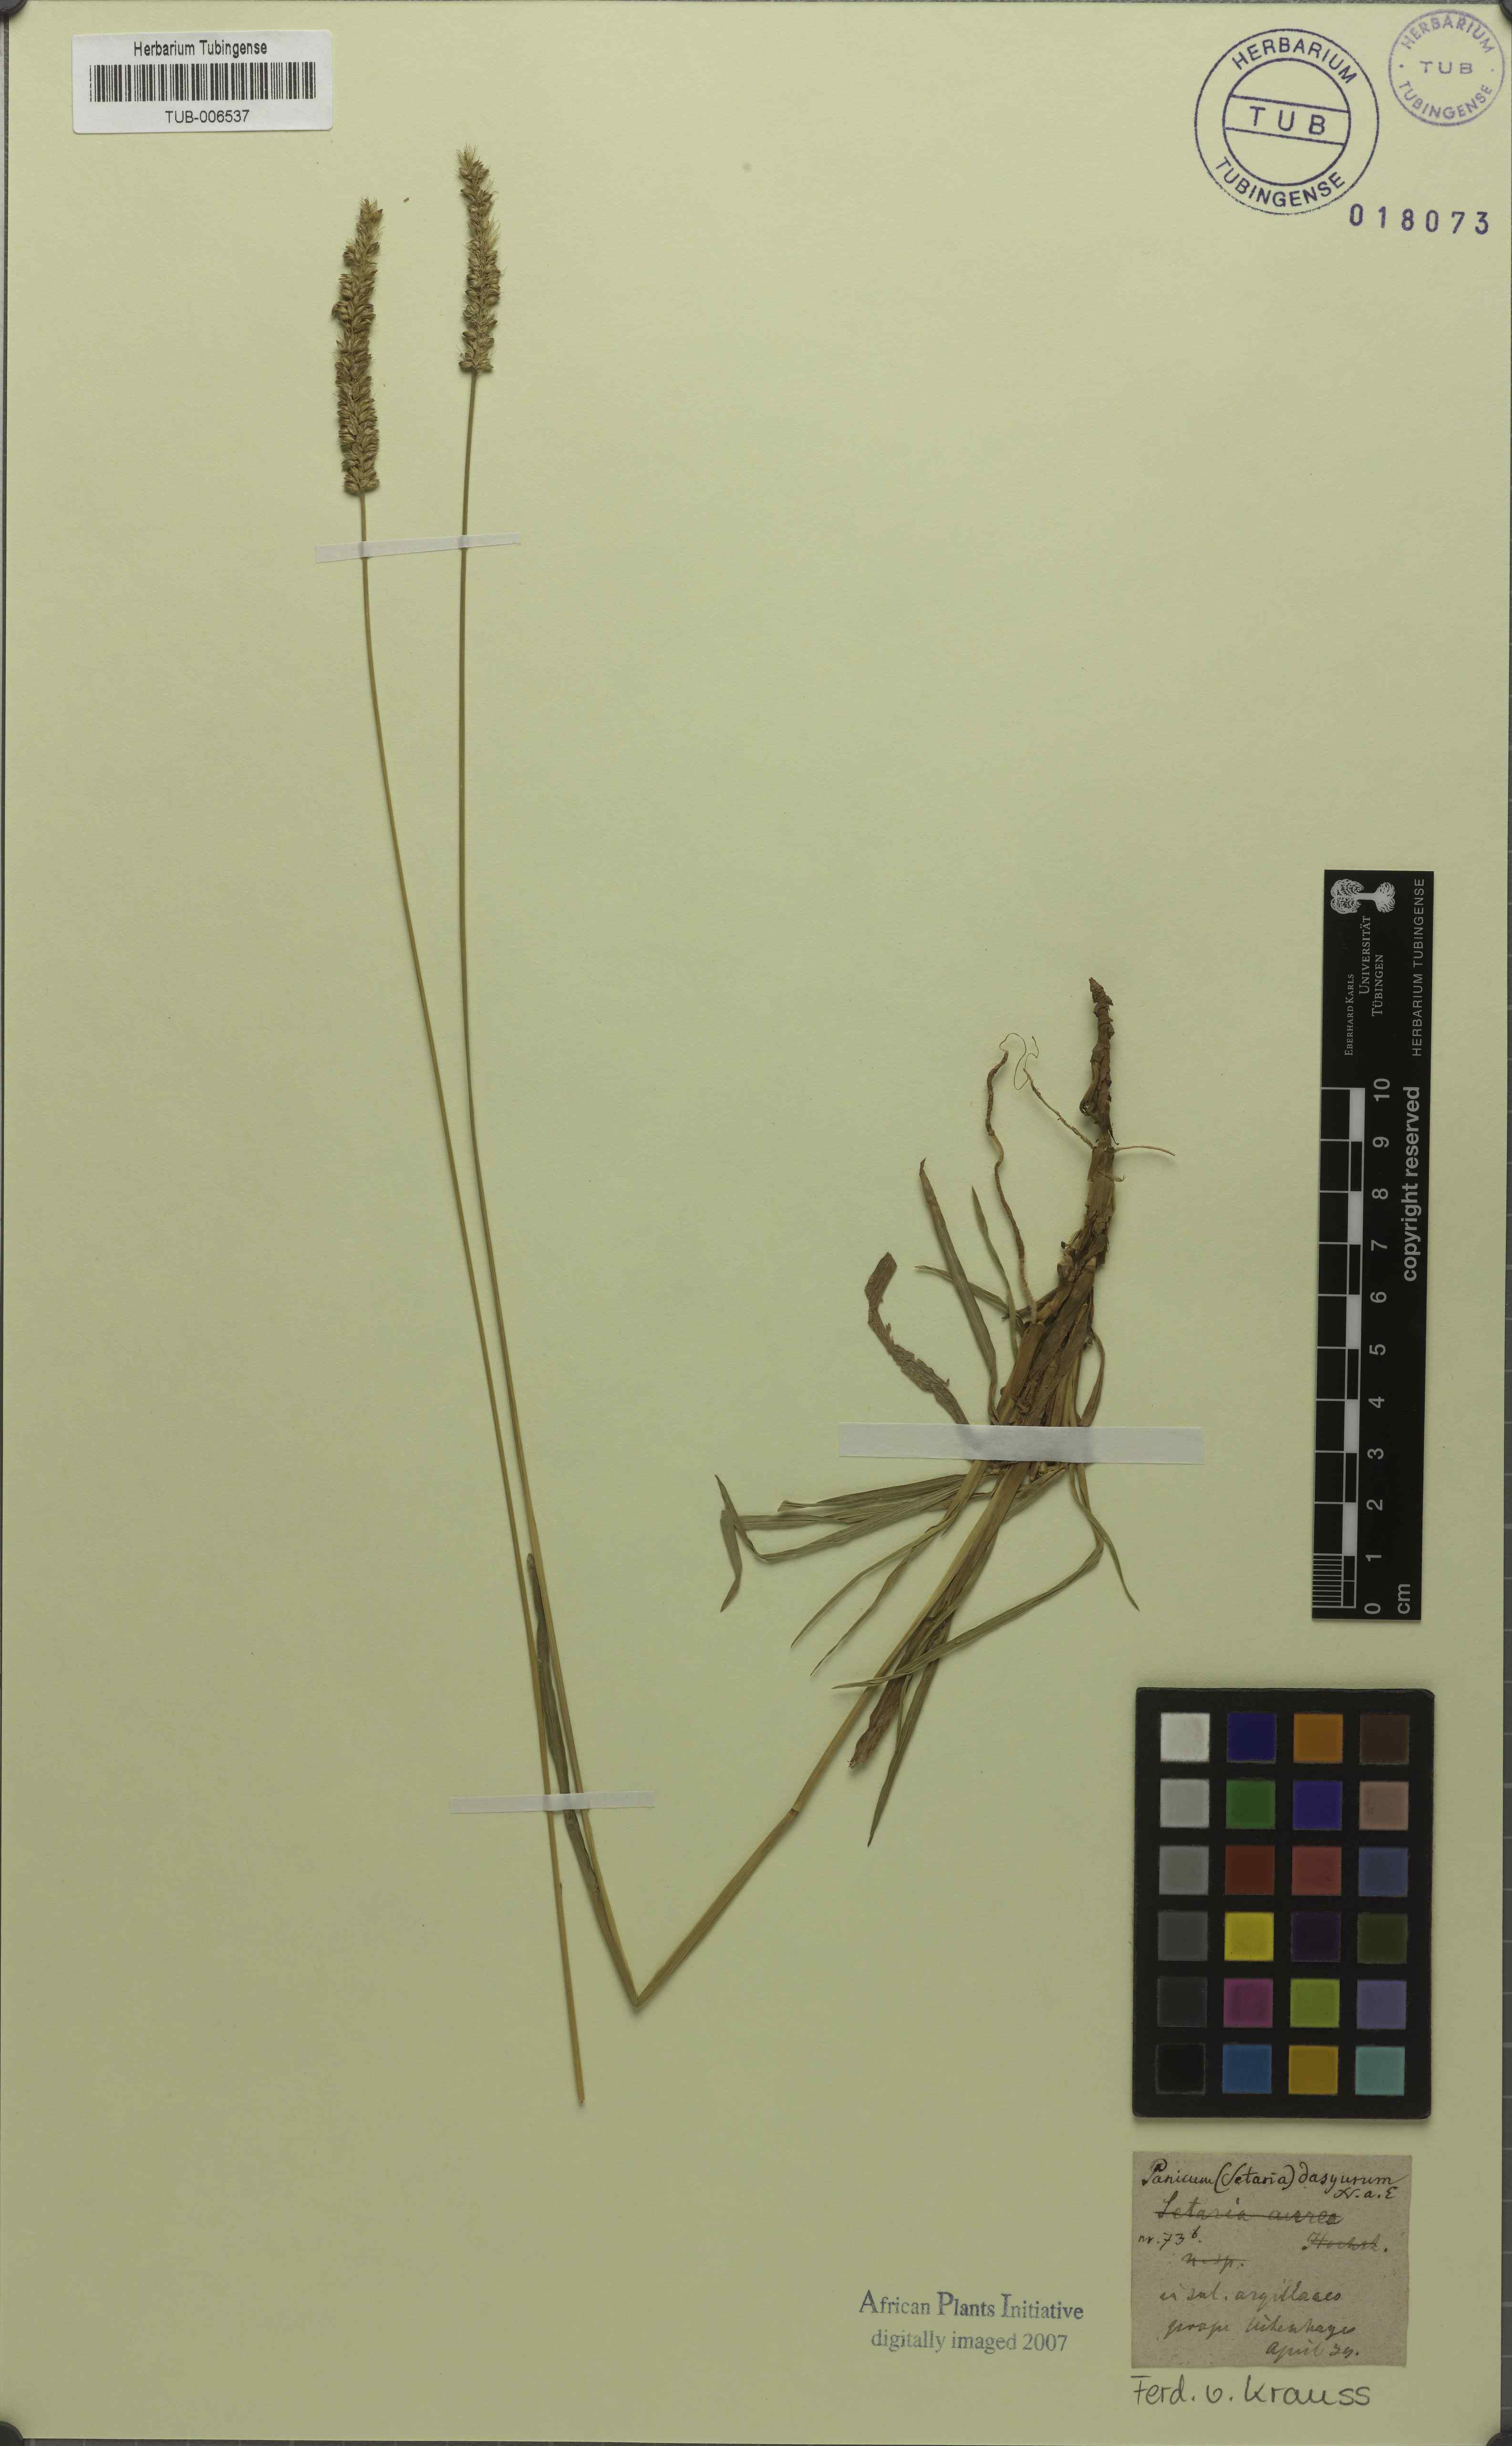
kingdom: Plantae
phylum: Tracheophyta
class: Liliopsida
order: Poales
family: Poaceae
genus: Cenchrus
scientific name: Cenchrus setosus
